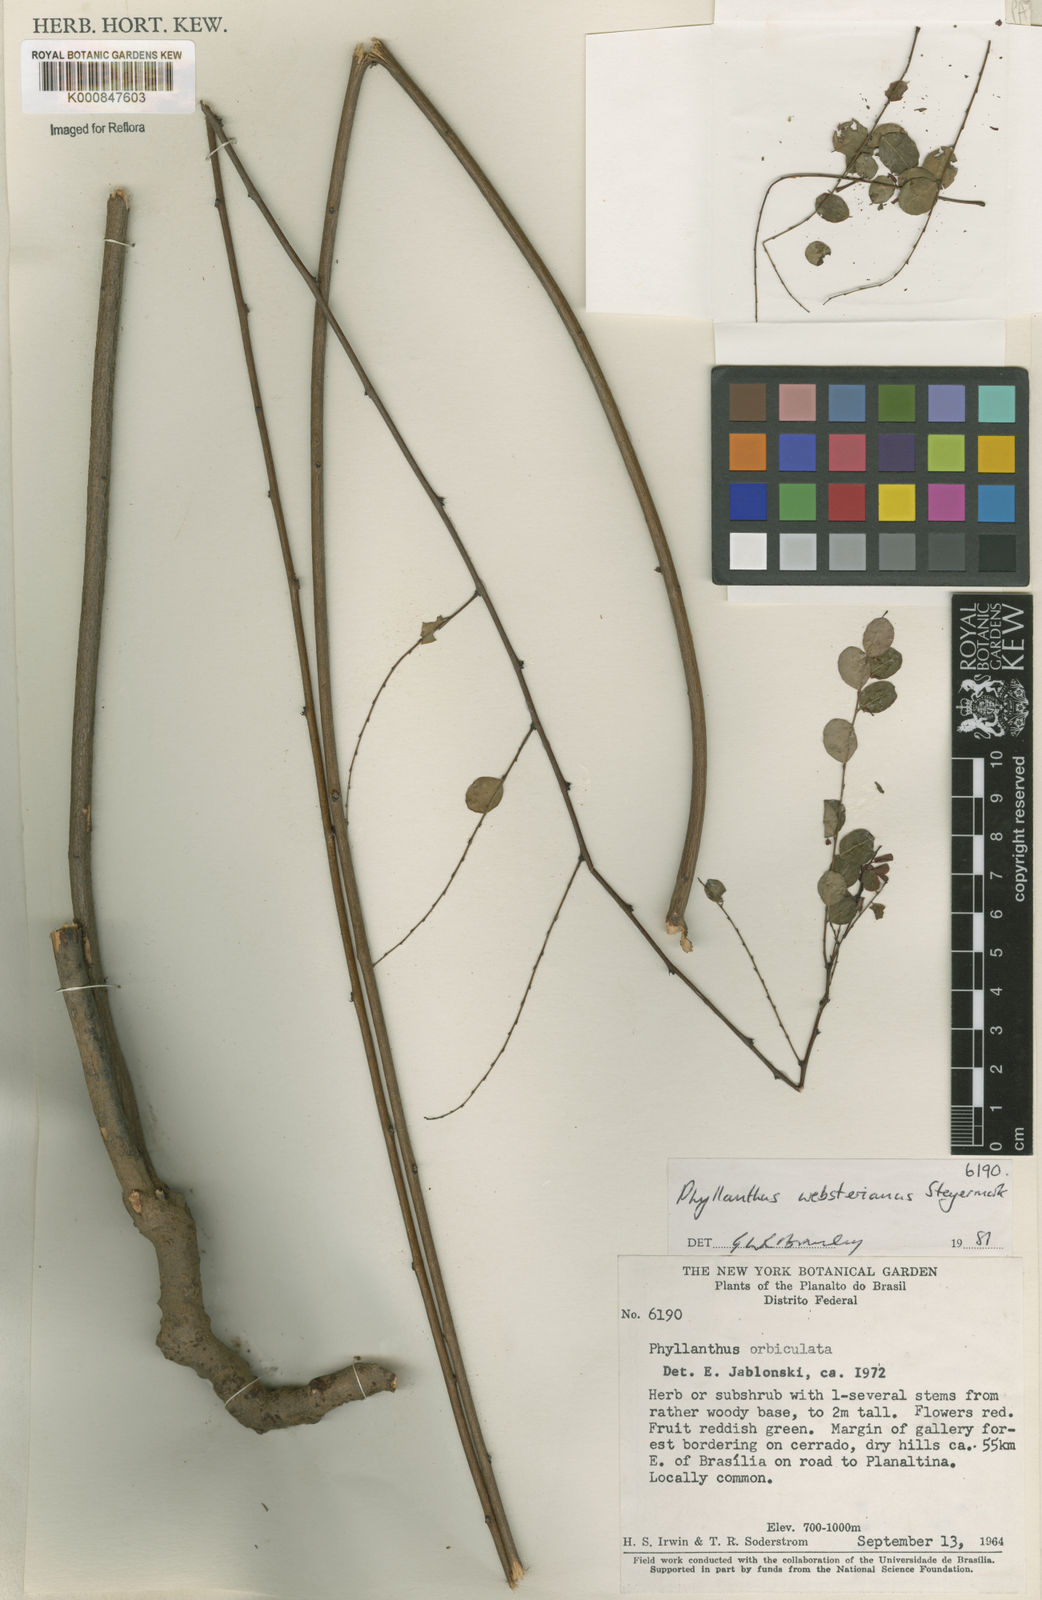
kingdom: Plantae
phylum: Tracheophyta
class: Magnoliopsida
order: Malpighiales
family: Phyllanthaceae
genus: Phyllanthus
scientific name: Phyllanthus websterianus
